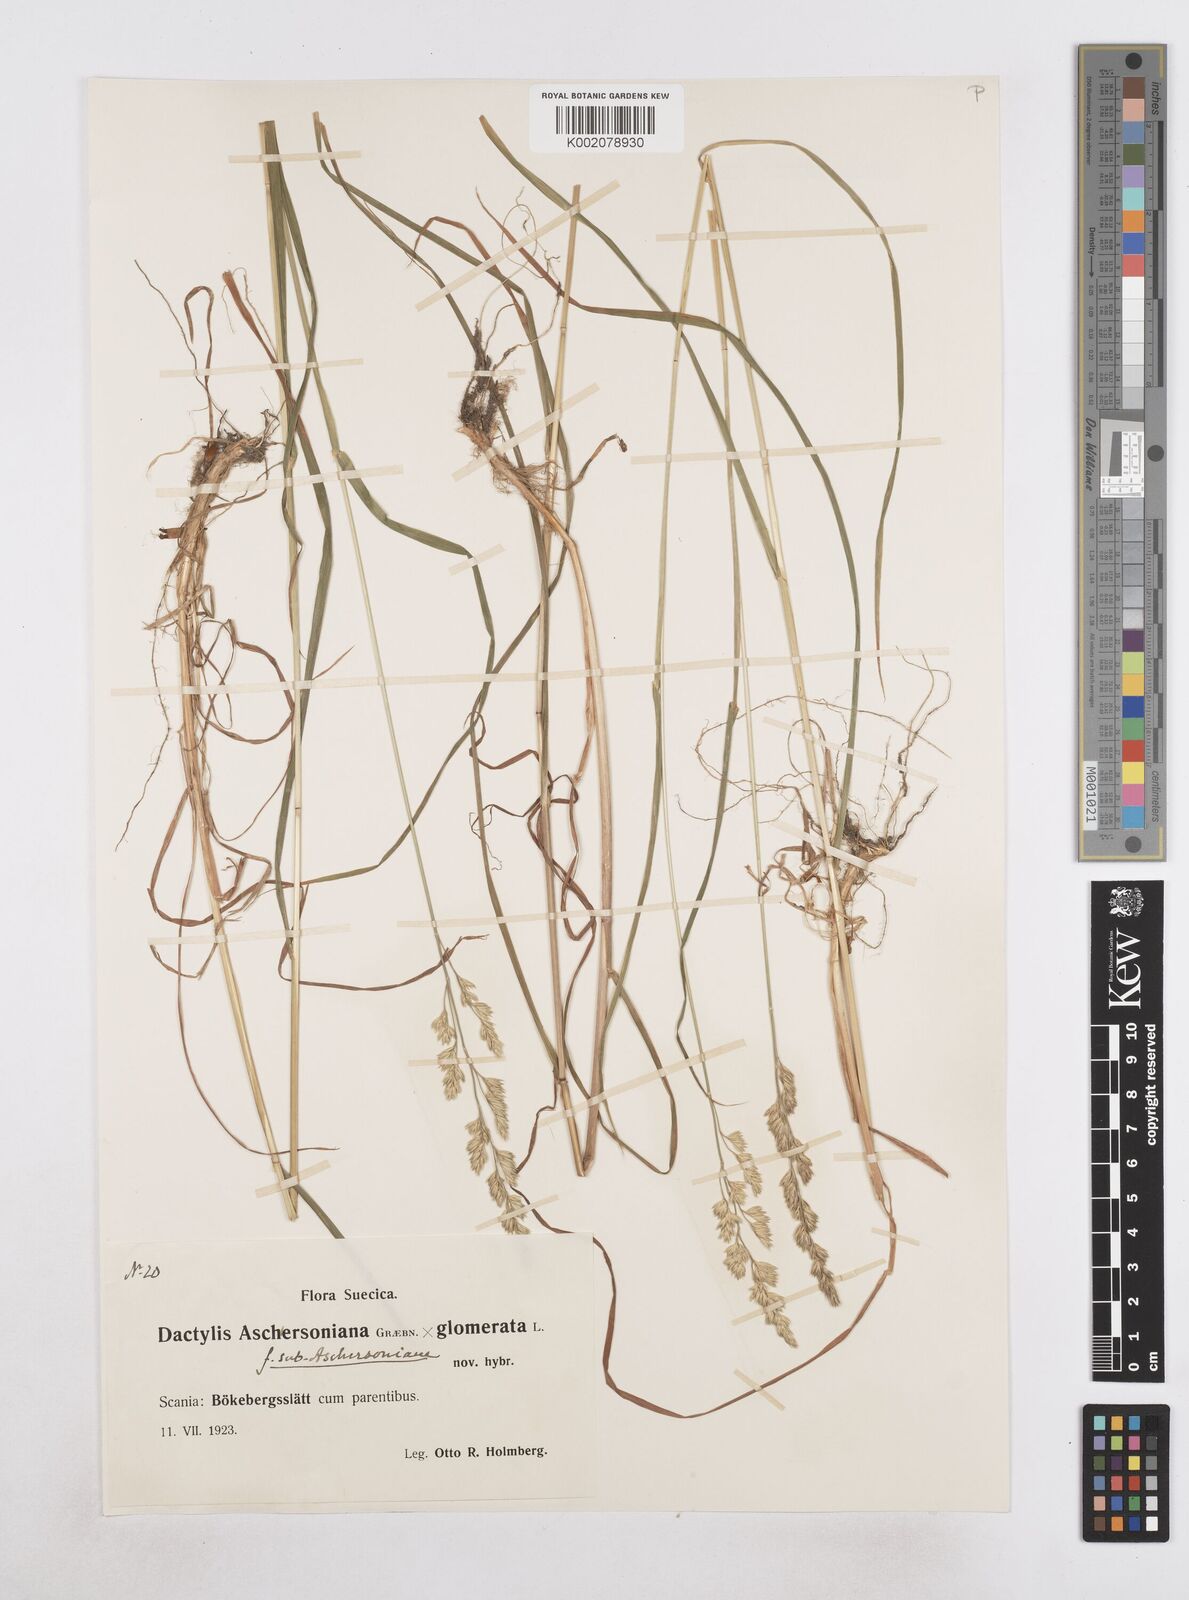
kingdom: Plantae
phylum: Tracheophyta
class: Liliopsida
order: Poales
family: Poaceae
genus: Dactylis
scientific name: Dactylis glomerata
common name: Orchardgrass
